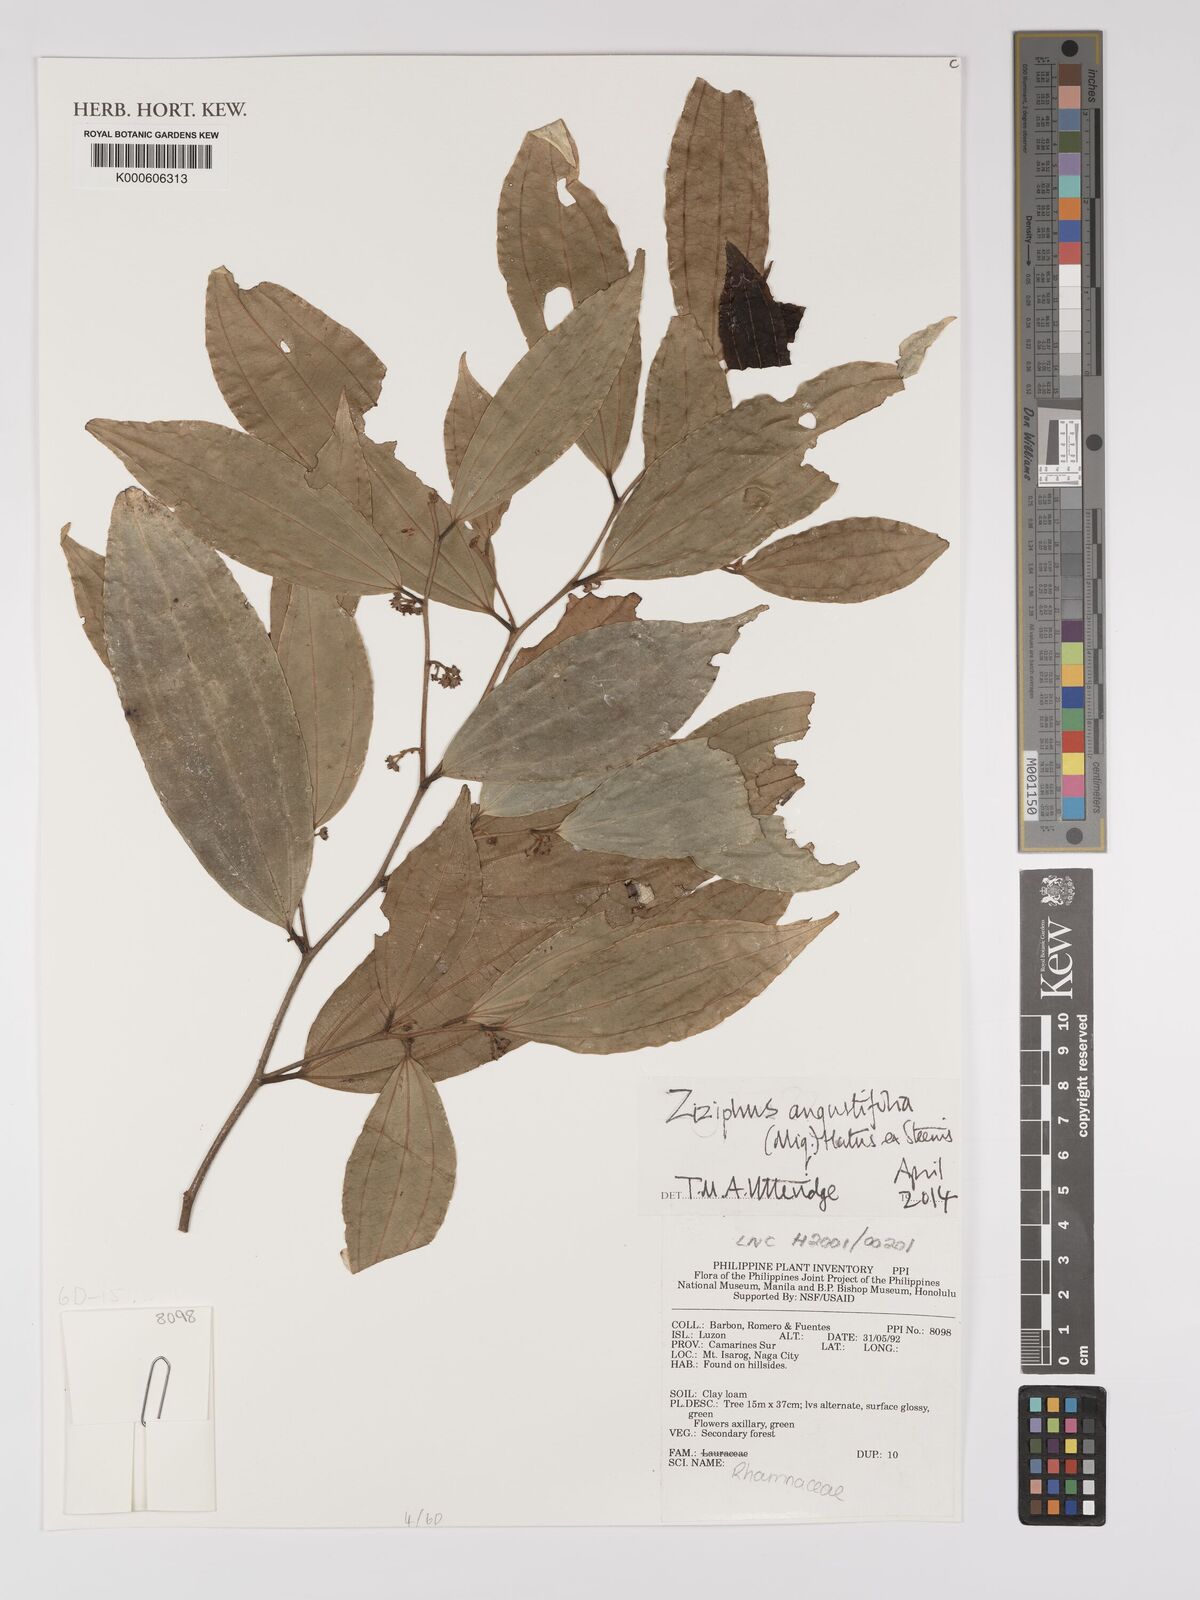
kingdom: Plantae
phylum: Tracheophyta
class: Magnoliopsida
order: Rosales
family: Rhamnaceae
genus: Ziziphus
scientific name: Ziziphus angustifolia
